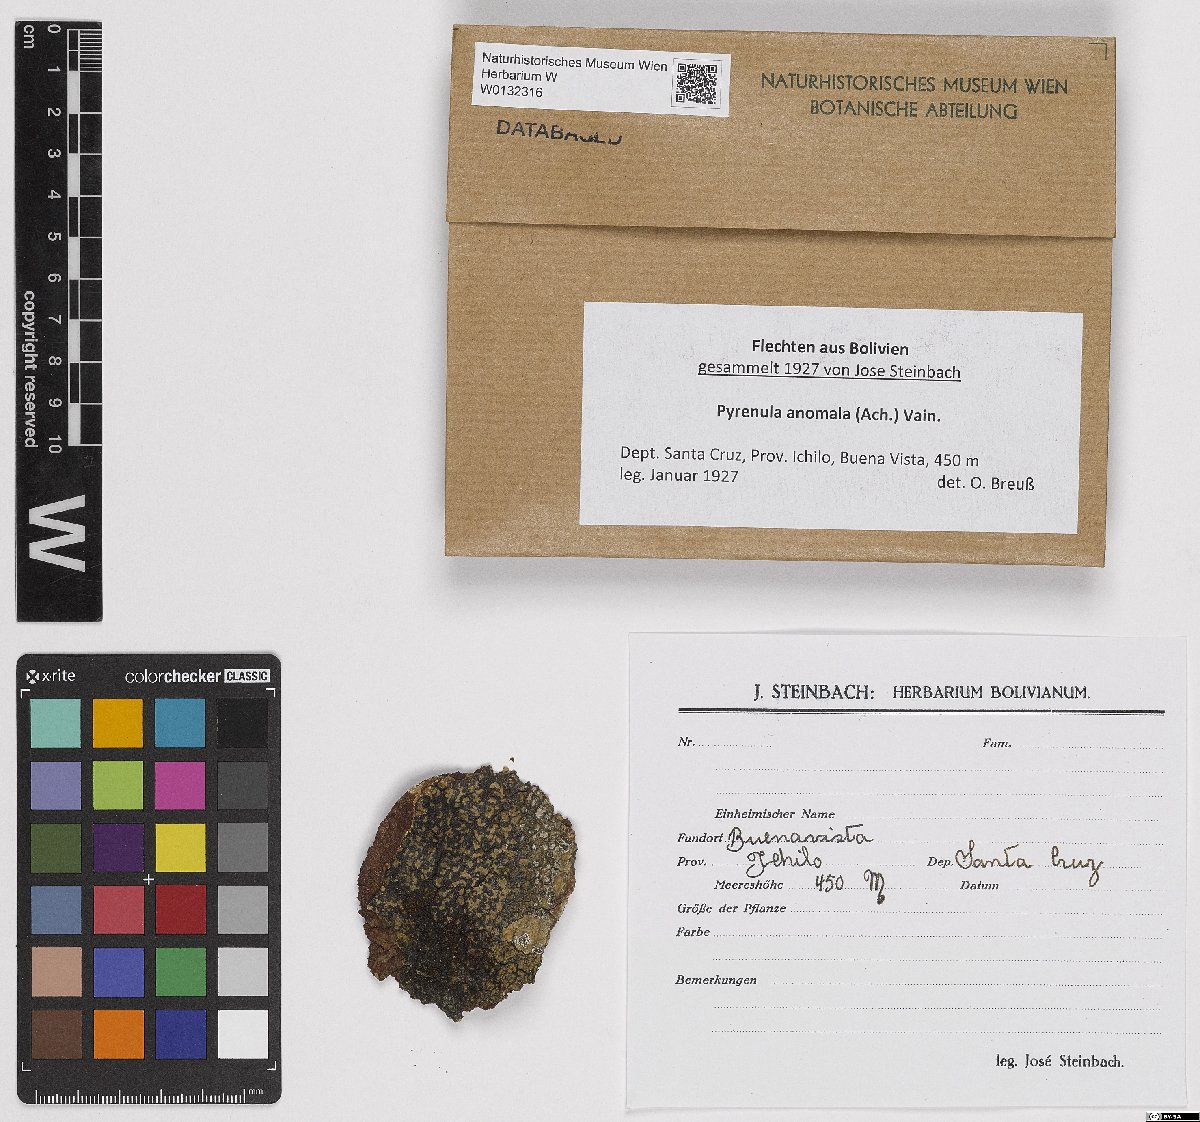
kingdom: Fungi
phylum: Ascomycota
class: Eurotiomycetes
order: Pyrenulales
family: Pyrenulaceae
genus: Pyrenula
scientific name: Pyrenula anomala
